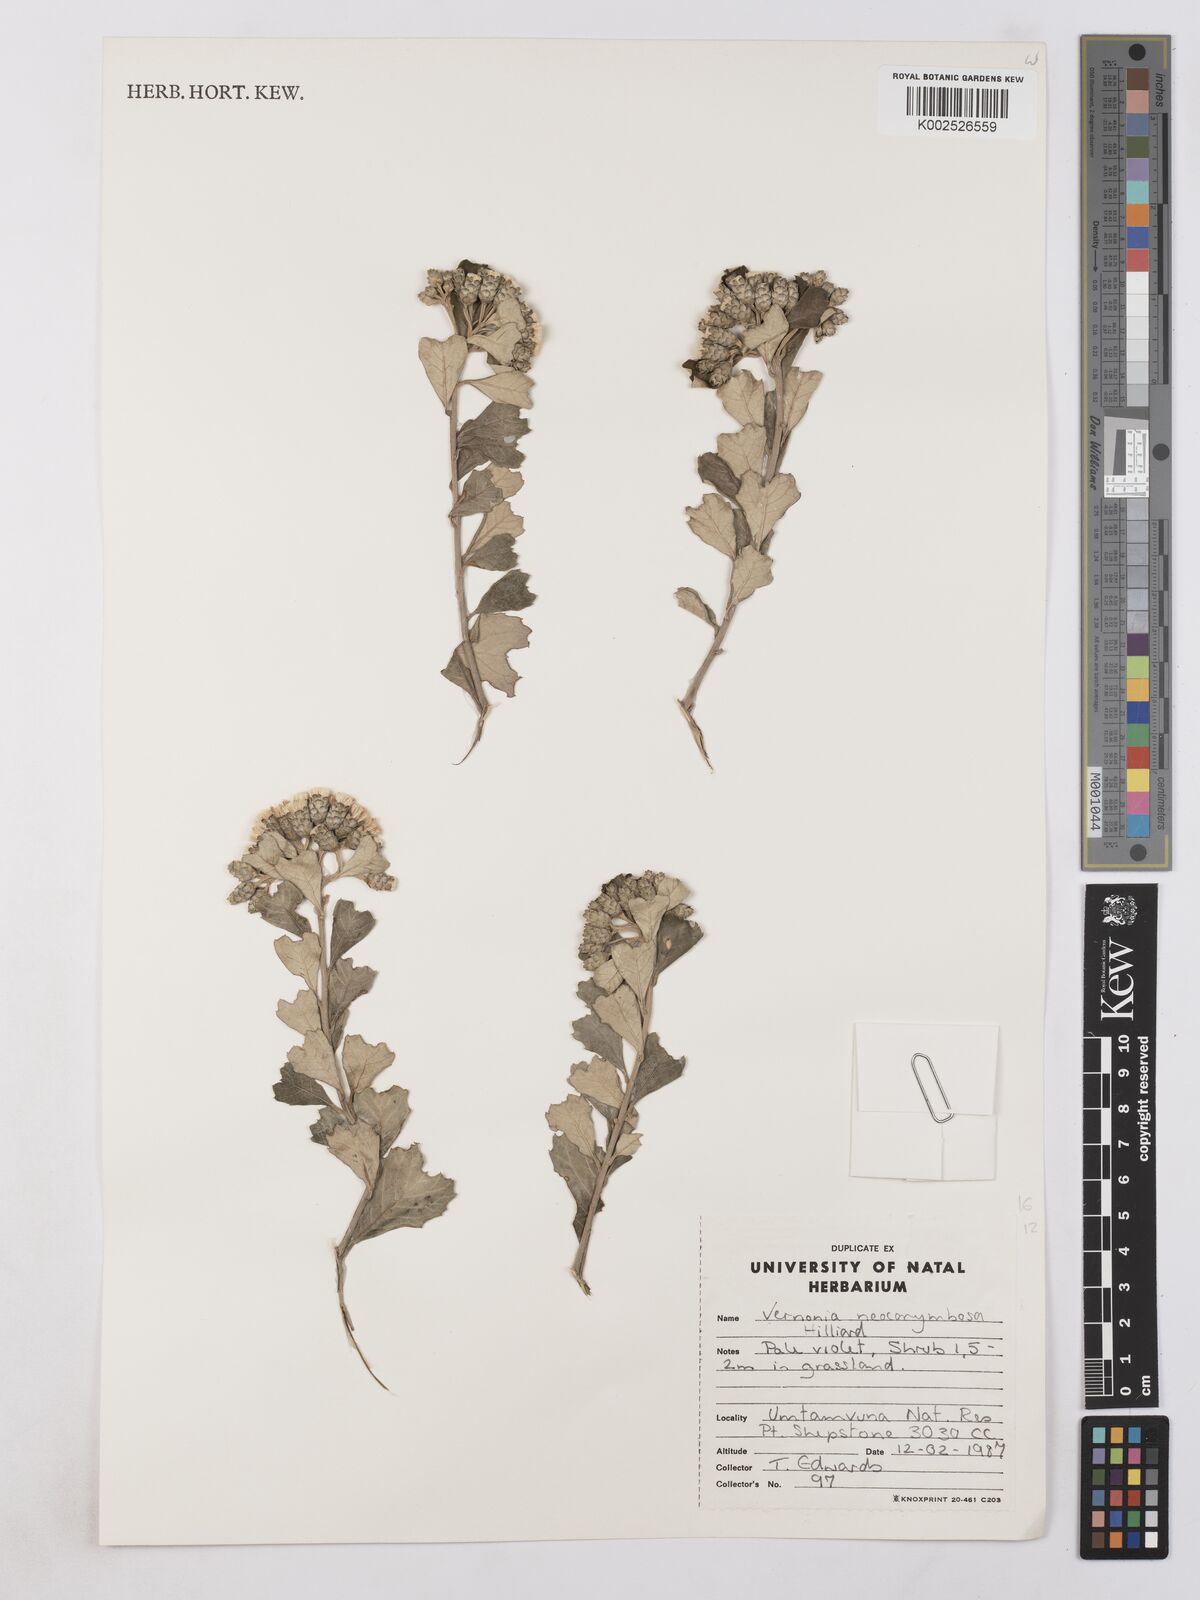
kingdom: Plantae
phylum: Tracheophyta
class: Magnoliopsida
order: Asterales
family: Asteraceae
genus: Gymnanthemum
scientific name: Gymnanthemum corymbosum
